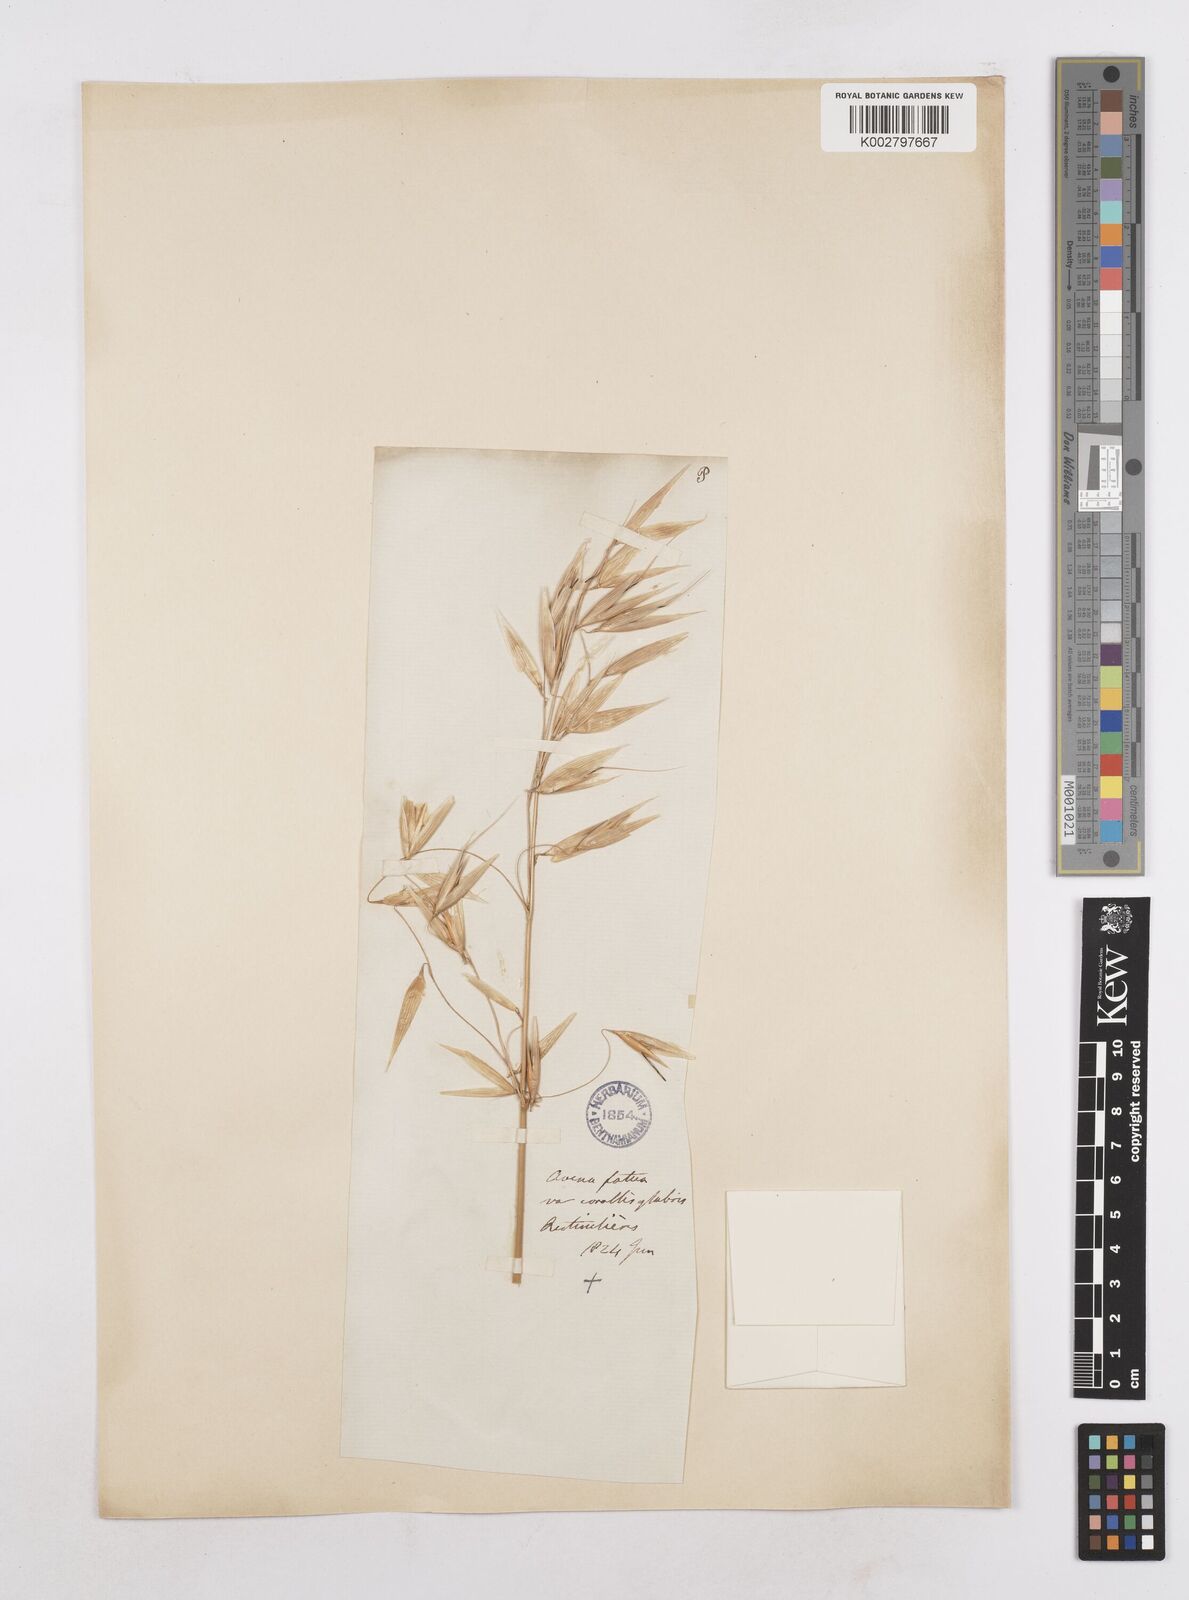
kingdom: Plantae
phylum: Tracheophyta
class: Liliopsida
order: Poales
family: Poaceae
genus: Avena
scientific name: Avena byzantina
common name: Algerian oat
